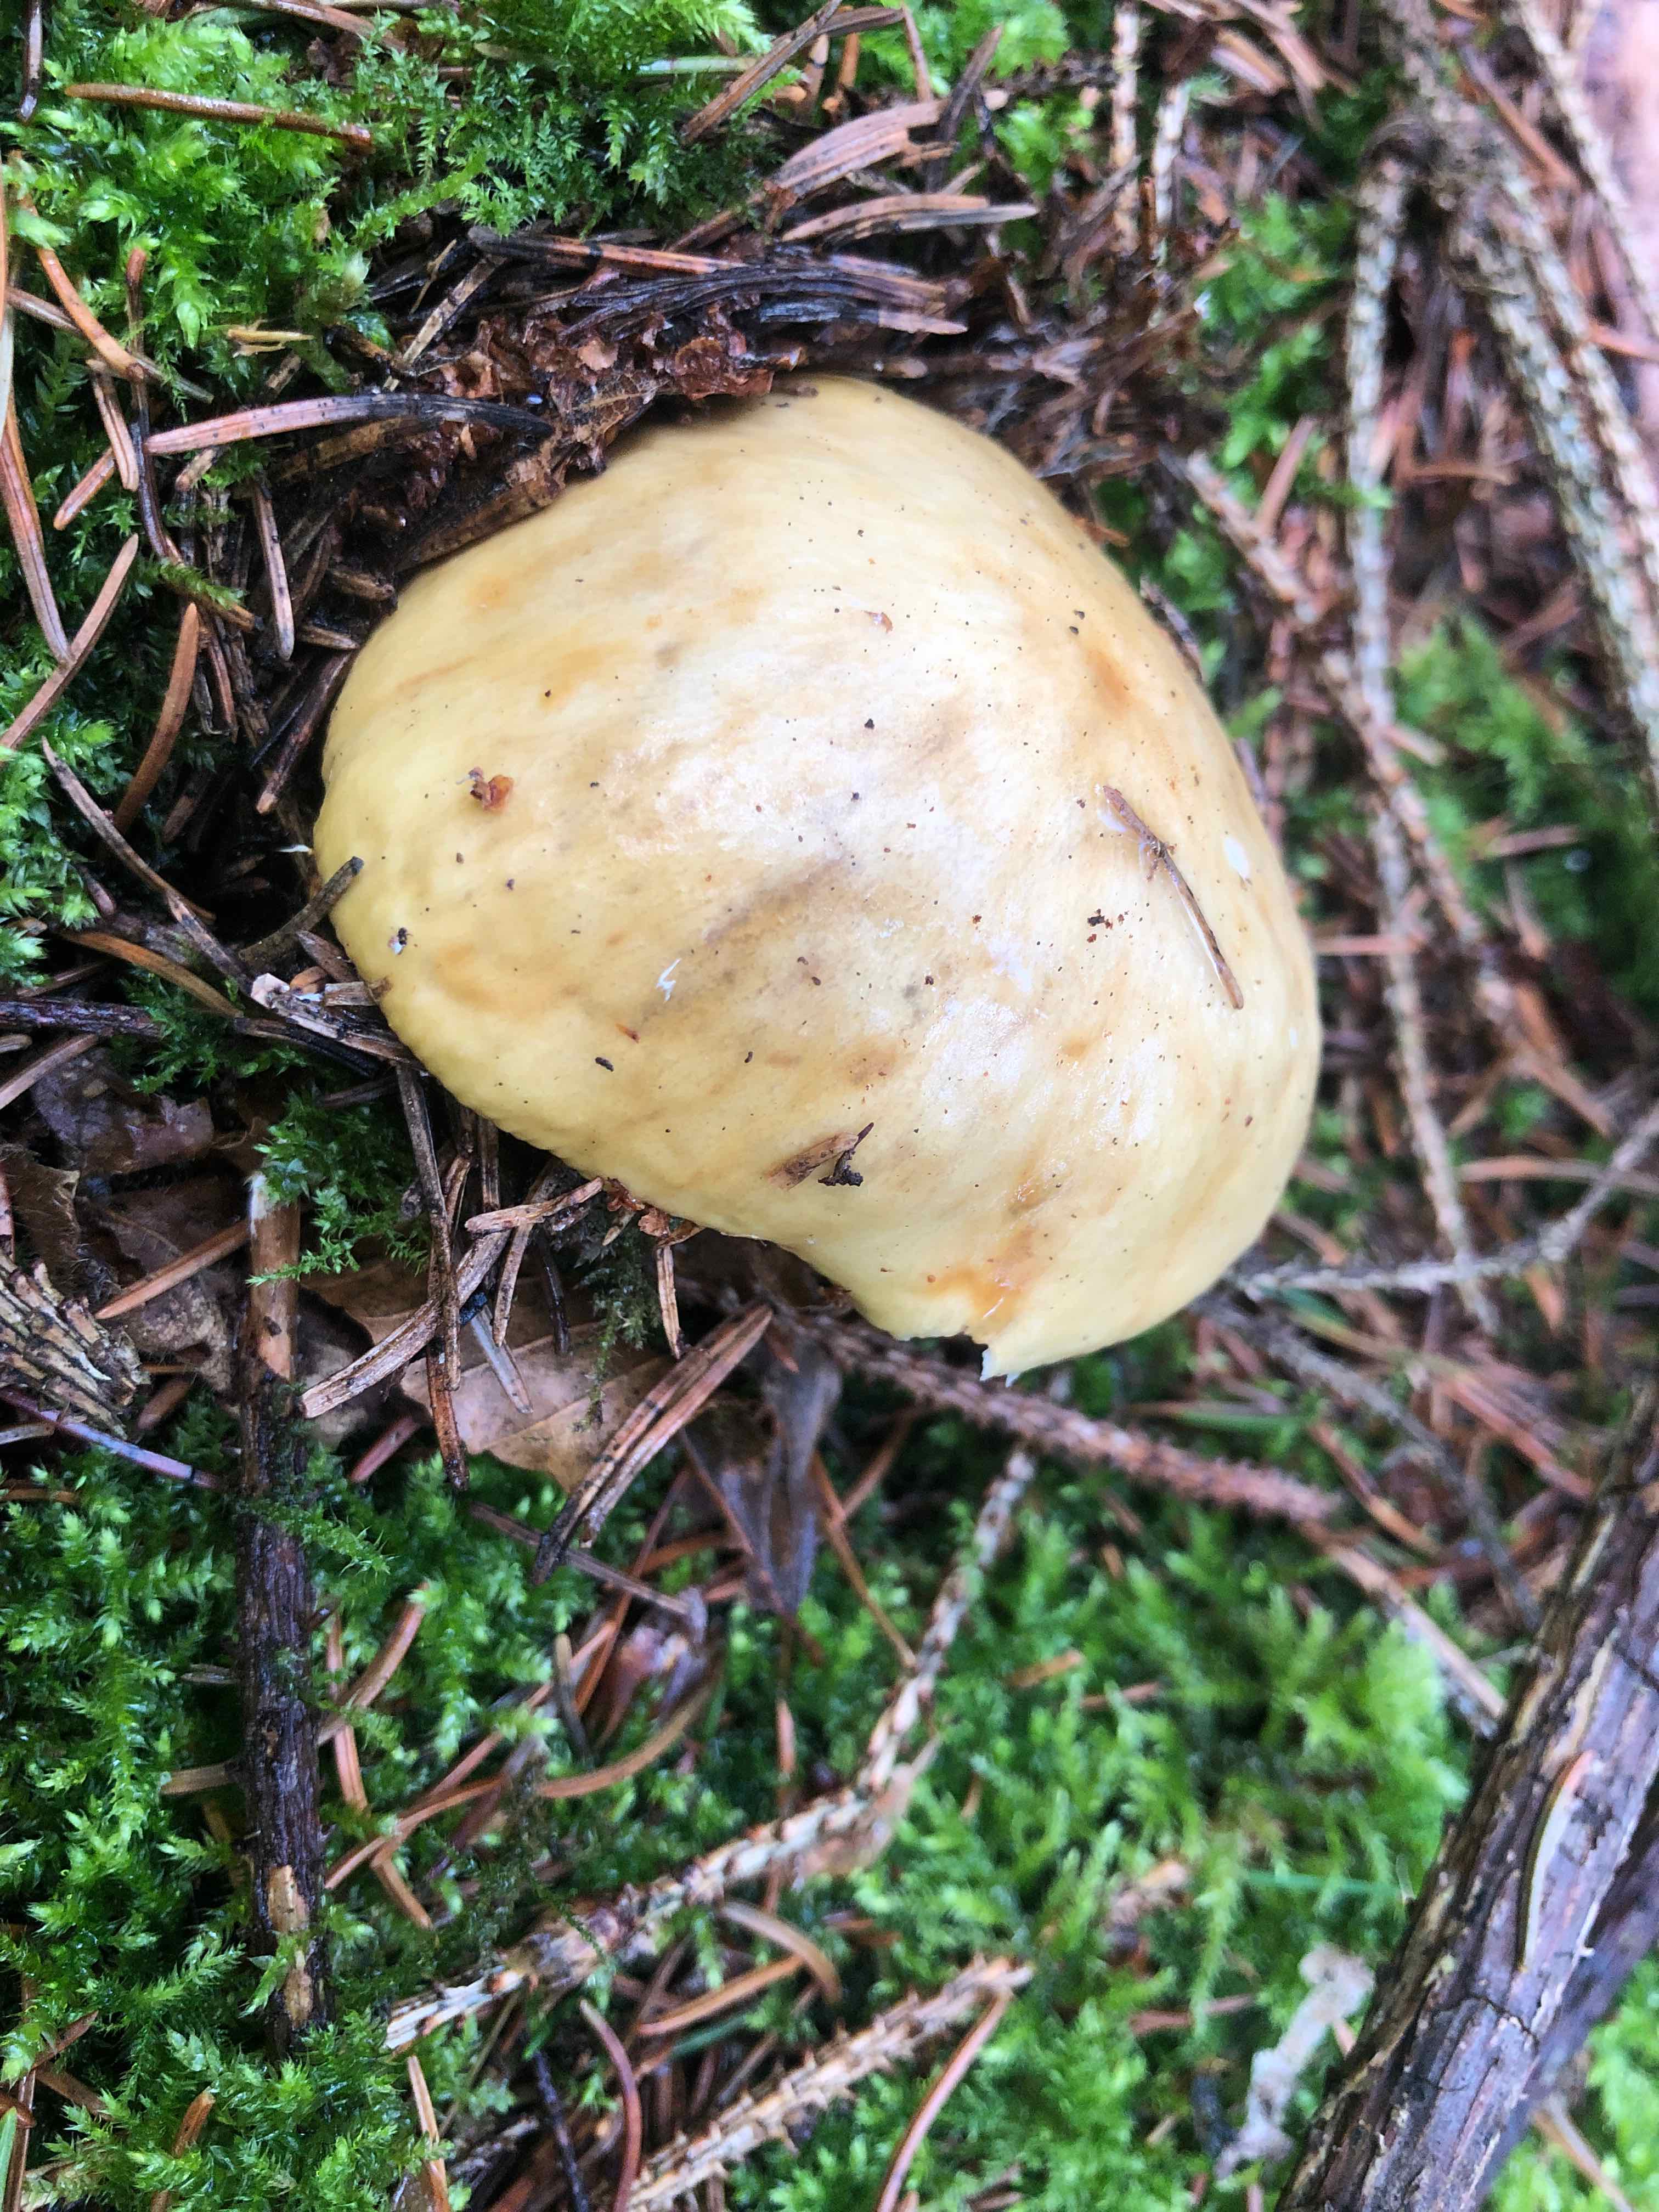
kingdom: Fungi
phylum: Basidiomycota
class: Agaricomycetes
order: Russulales
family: Russulaceae
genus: Russula
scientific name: Russula ochroleuca
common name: okkergul skørhat
